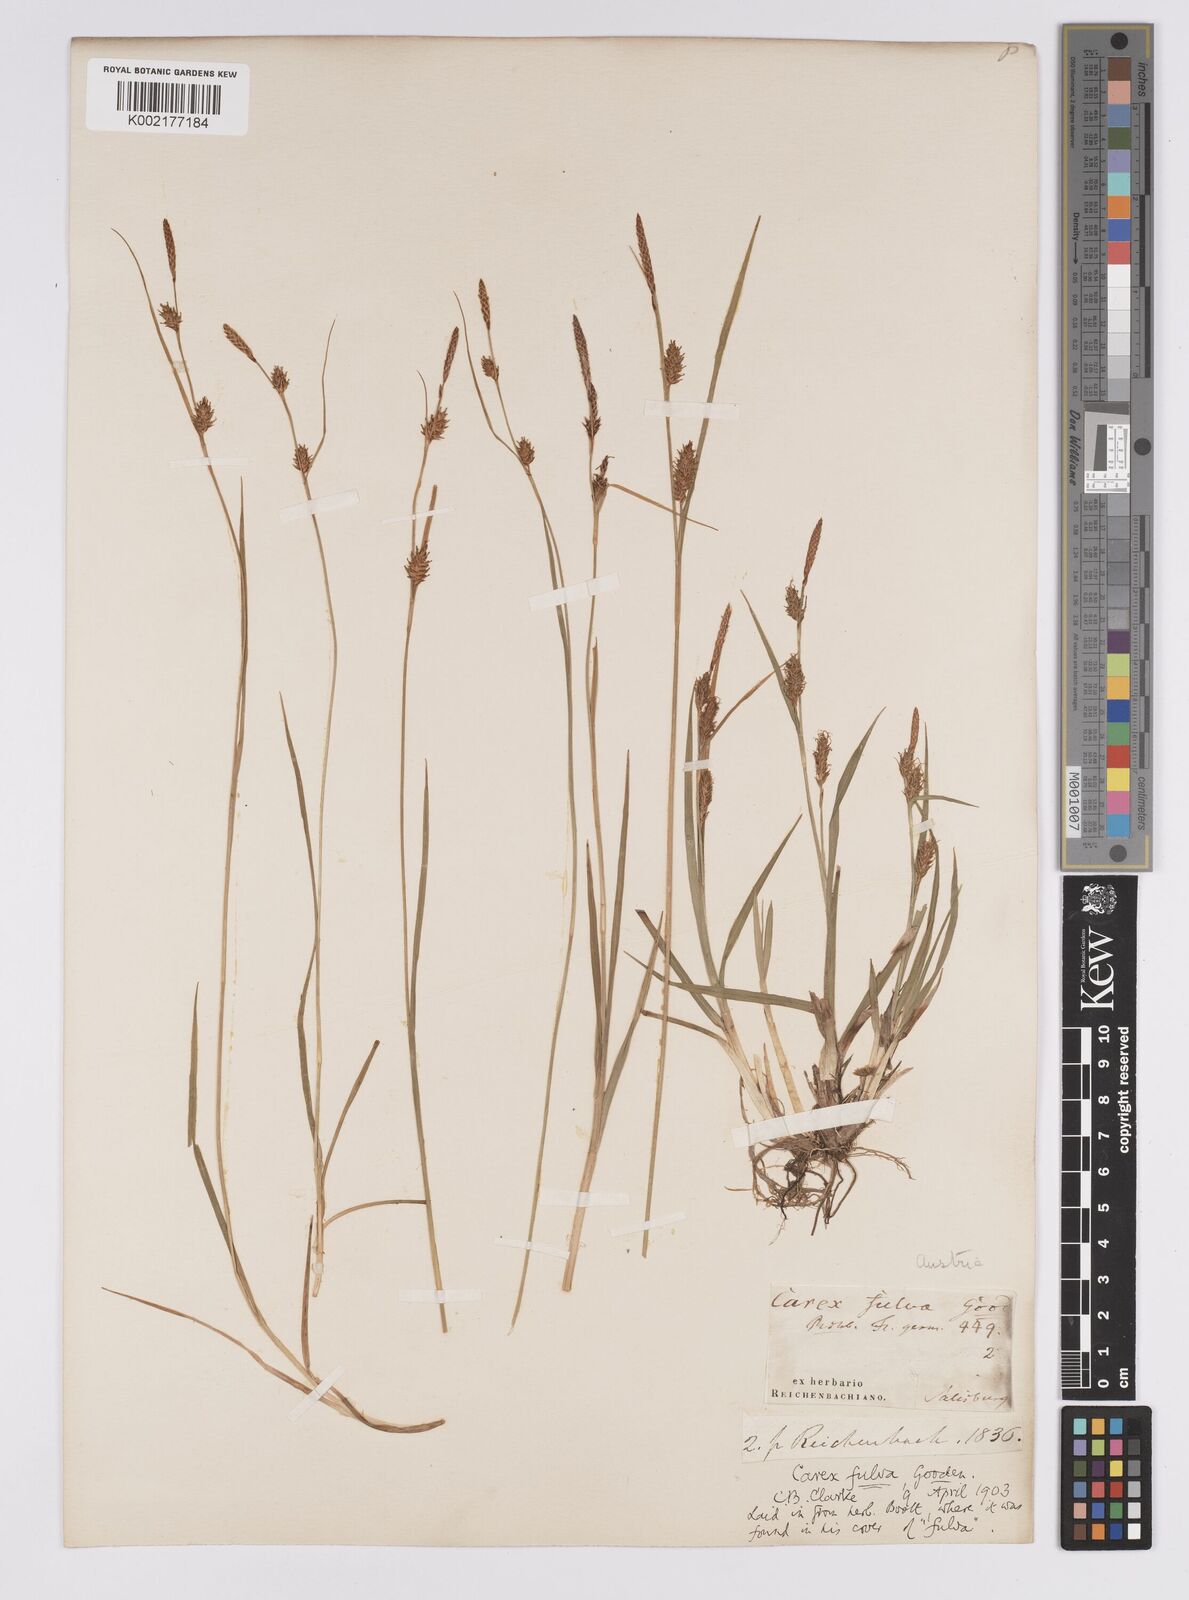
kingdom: Plantae
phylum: Tracheophyta
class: Liliopsida
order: Poales
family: Cyperaceae
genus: Carex
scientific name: Carex hostiana
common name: Tawny sedge
